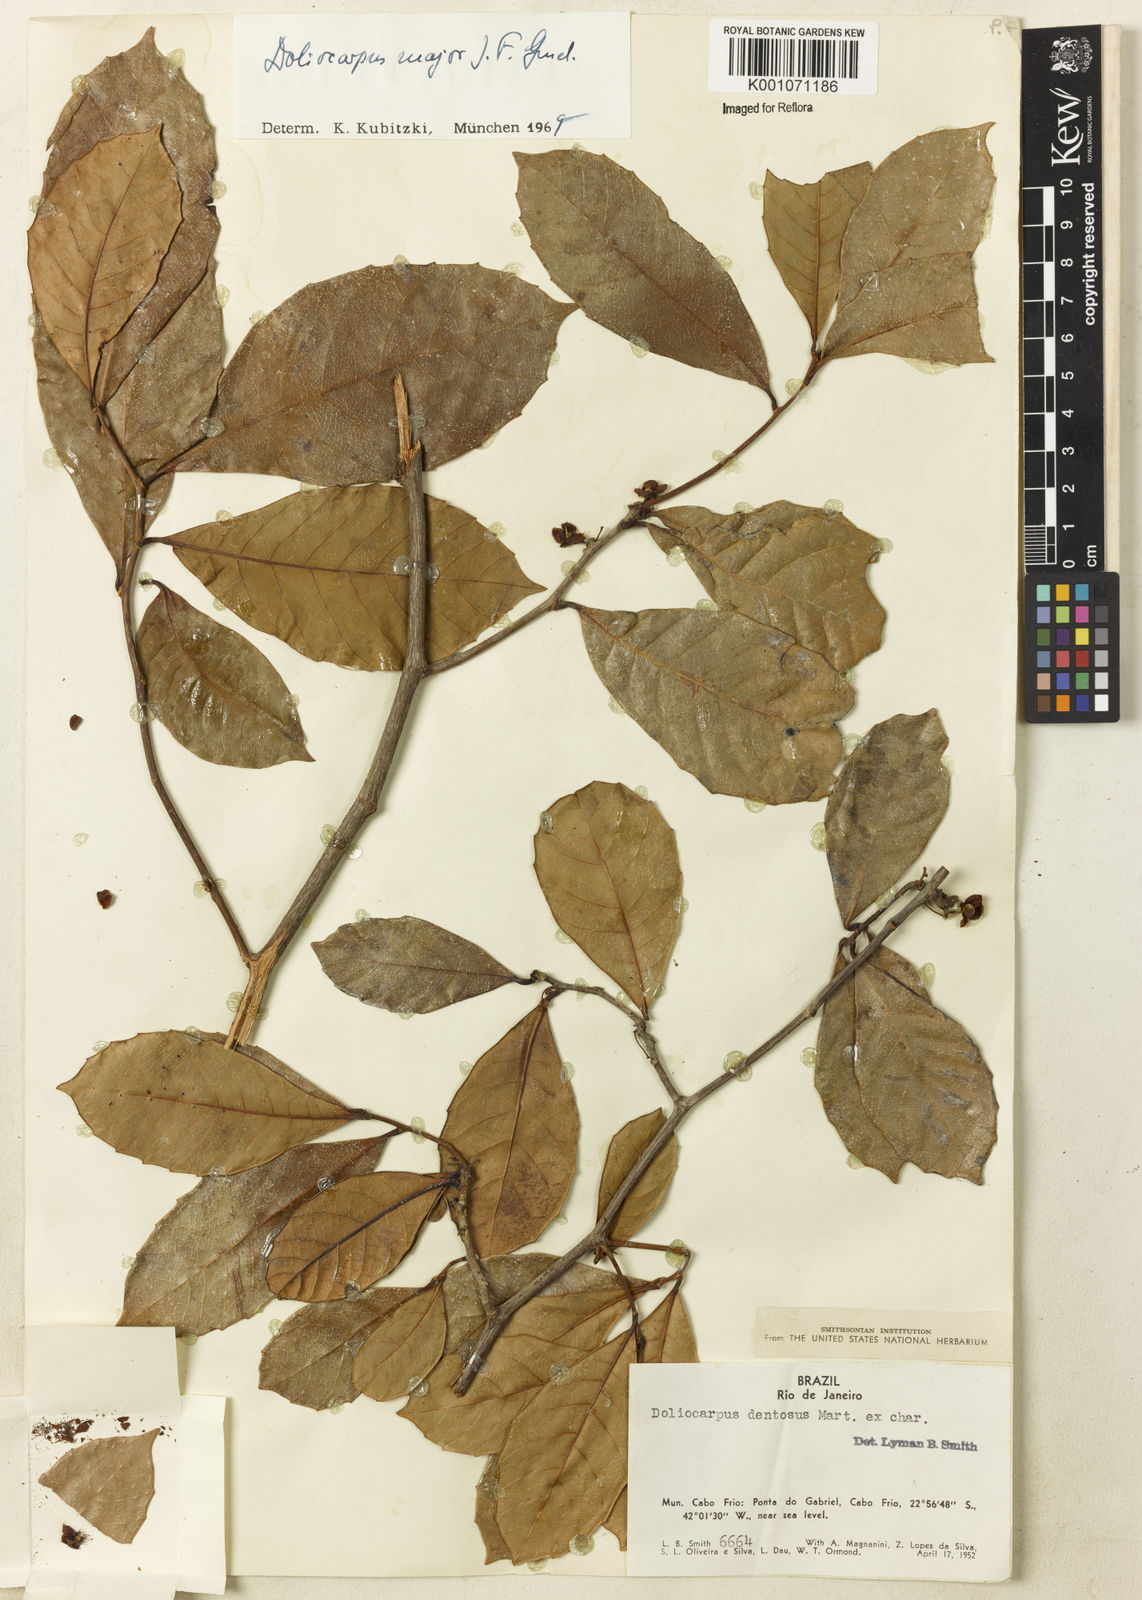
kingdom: Plantae
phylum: Tracheophyta
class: Magnoliopsida
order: Dilleniales
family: Dilleniaceae
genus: Doliocarpus
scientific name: Doliocarpus major
